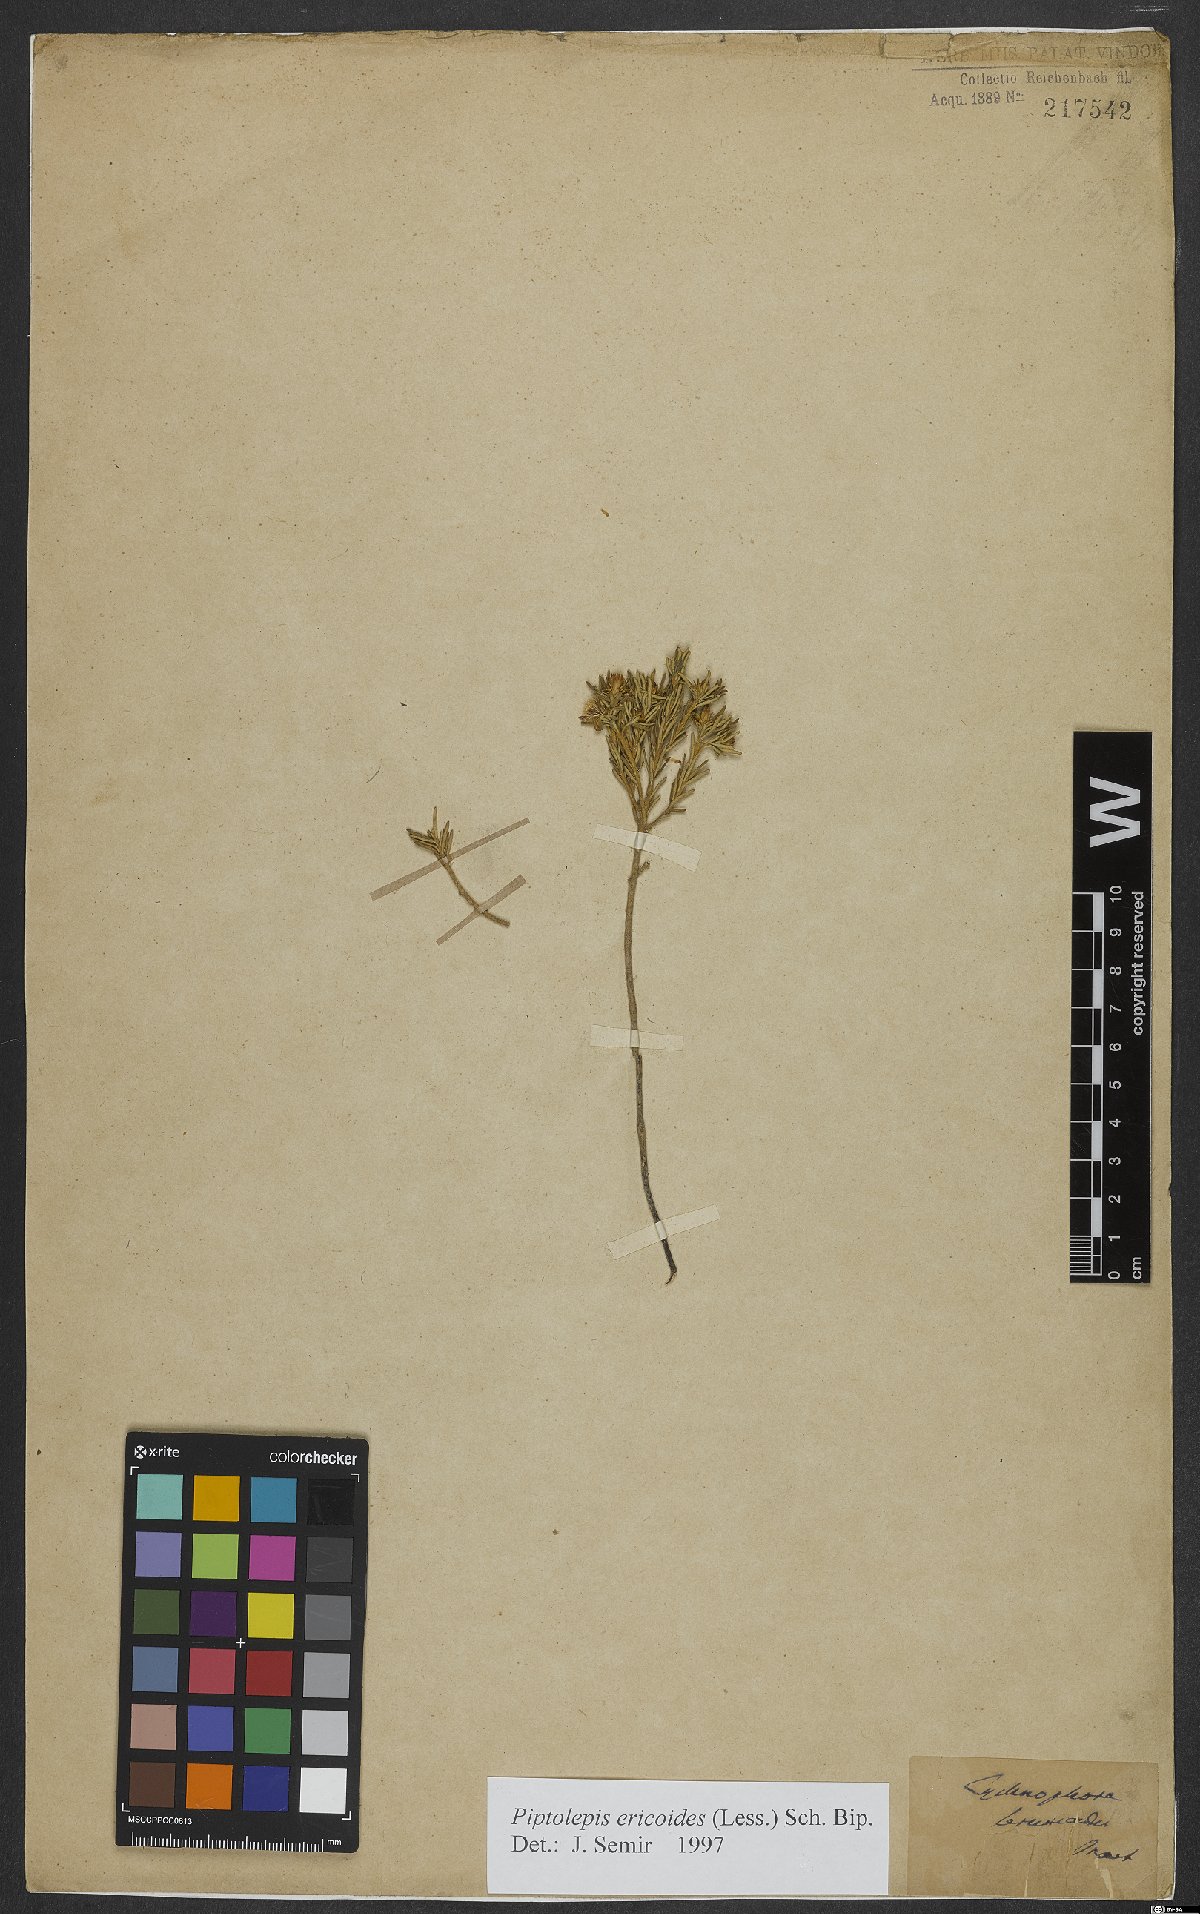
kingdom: Plantae
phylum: Tracheophyta
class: Magnoliopsida
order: Asterales
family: Asteraceae
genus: Piptolepis
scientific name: Piptolepis ericoides
